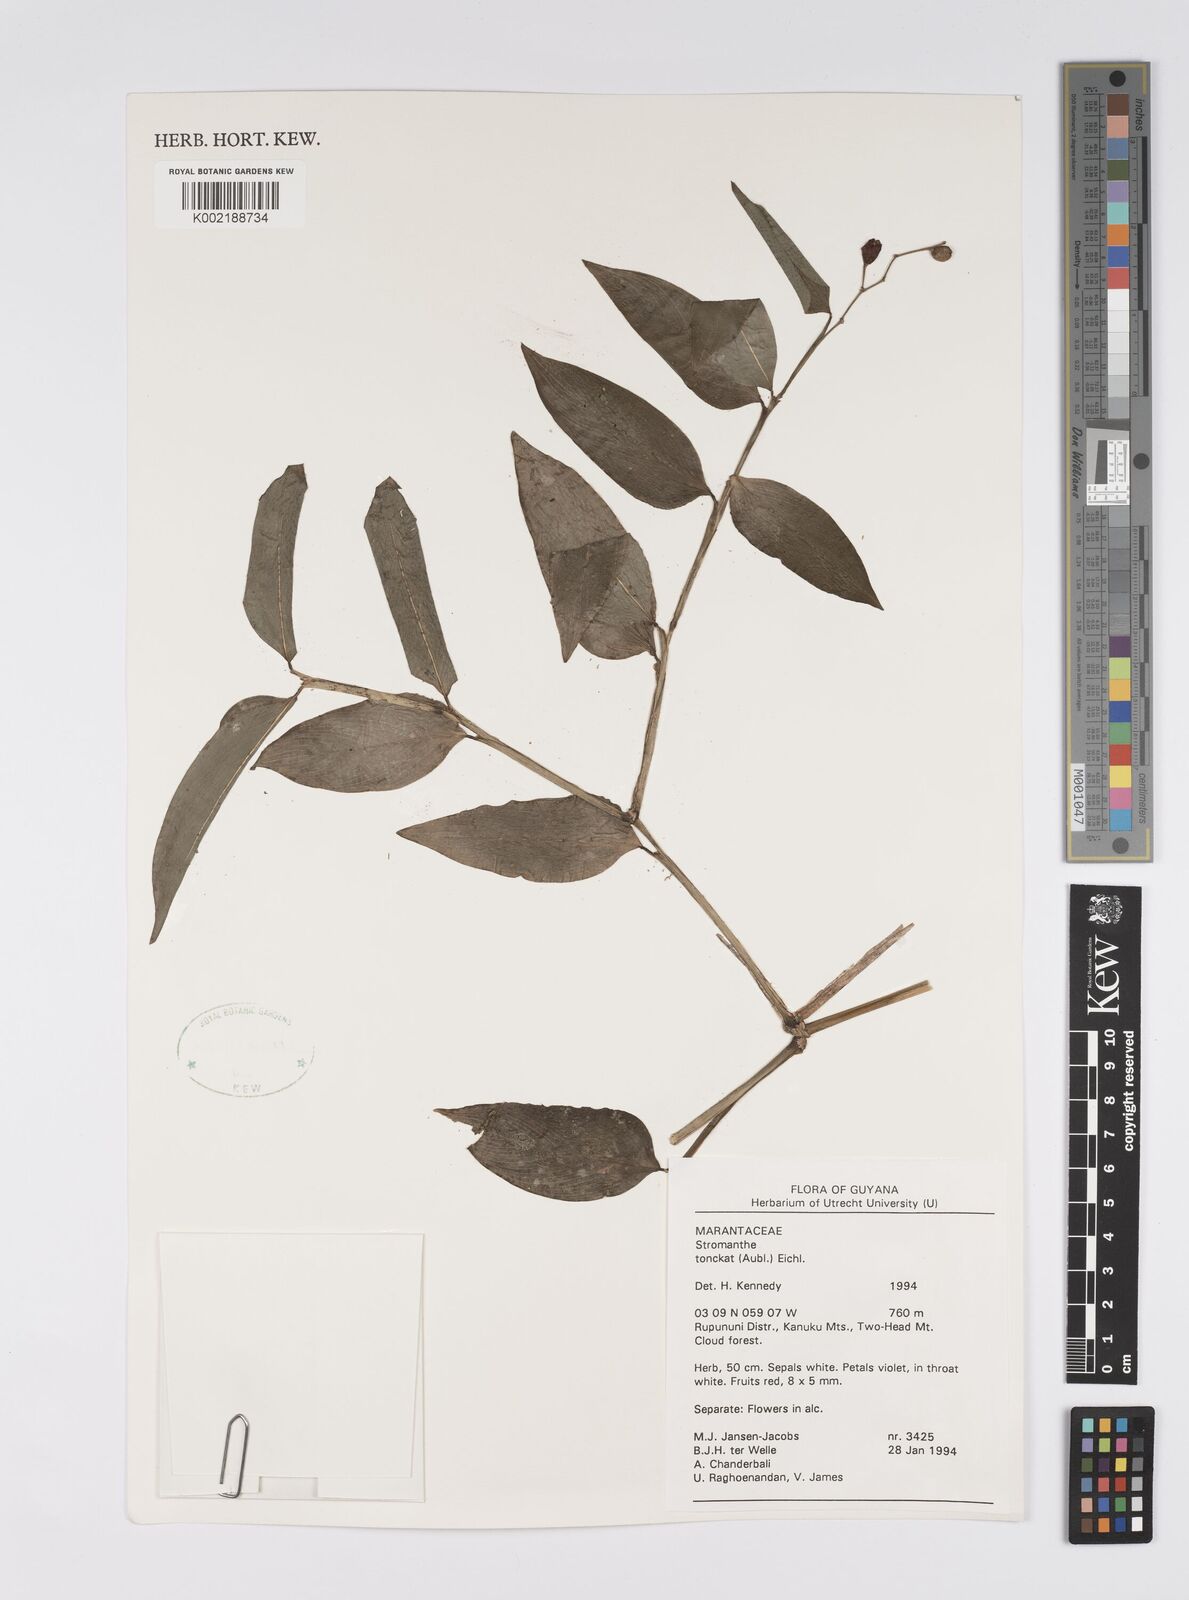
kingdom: Plantae
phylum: Tracheophyta
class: Liliopsida
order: Zingiberales
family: Marantaceae
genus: Stromanthe
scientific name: Stromanthe tonckat
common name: Stromanthe
